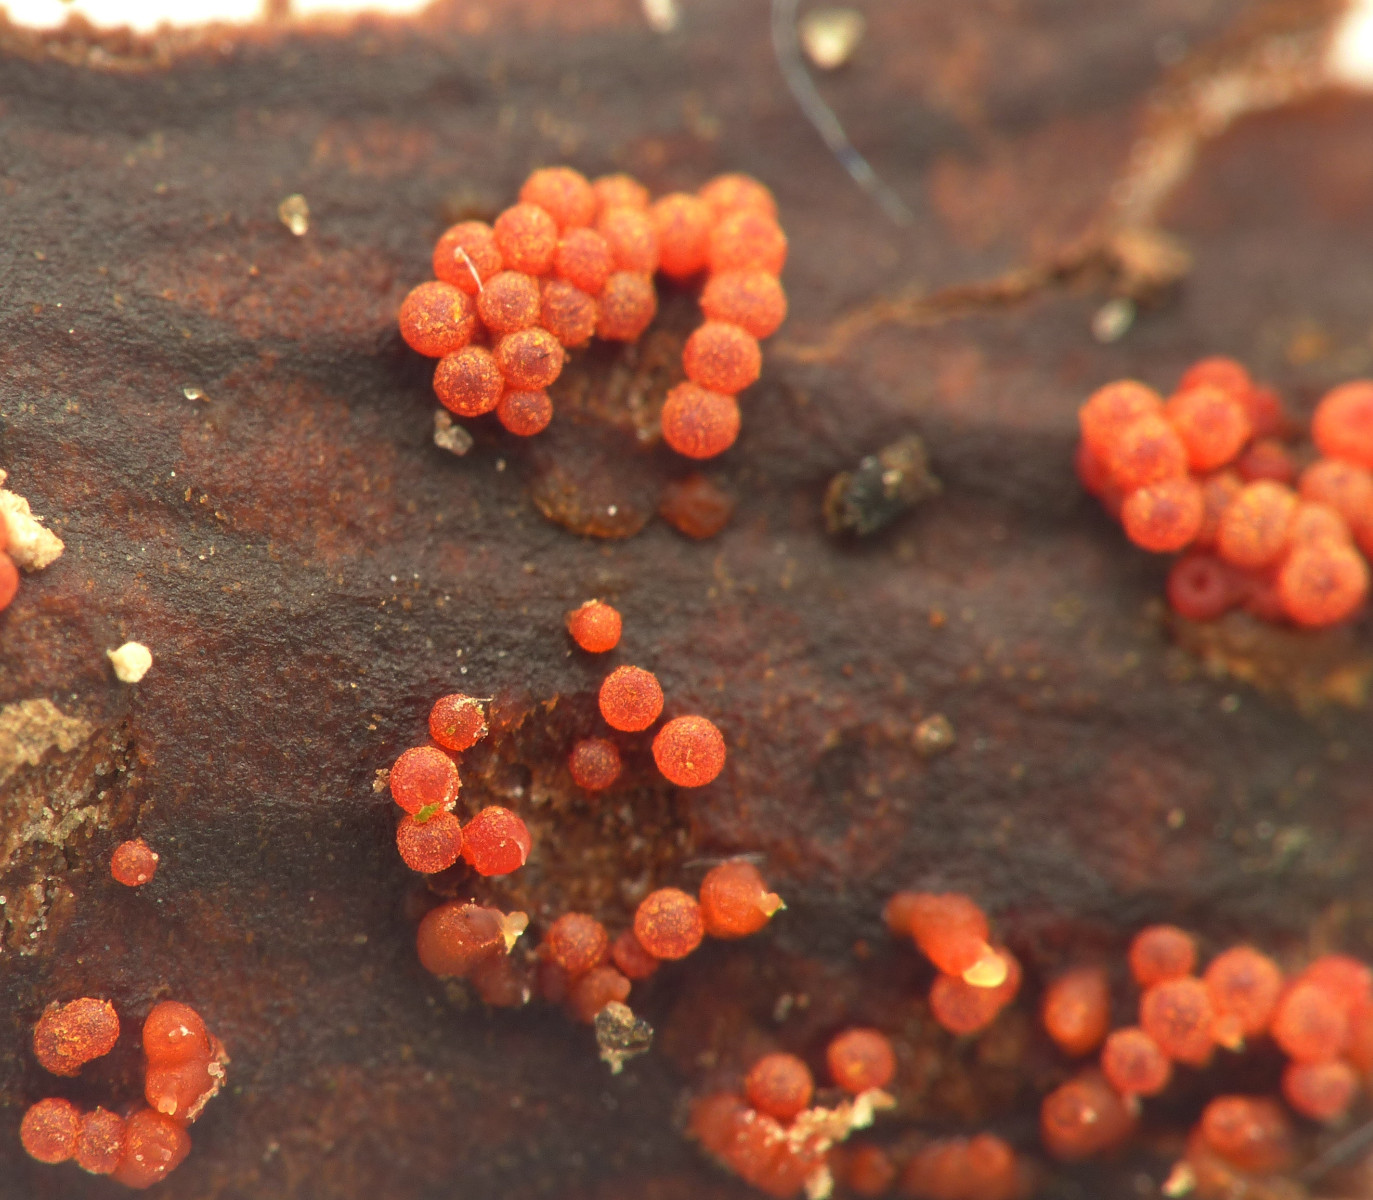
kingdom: Fungi
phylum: Ascomycota
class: Sordariomycetes
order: Hypocreales
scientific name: Hypocreales
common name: kødkerneordenen
